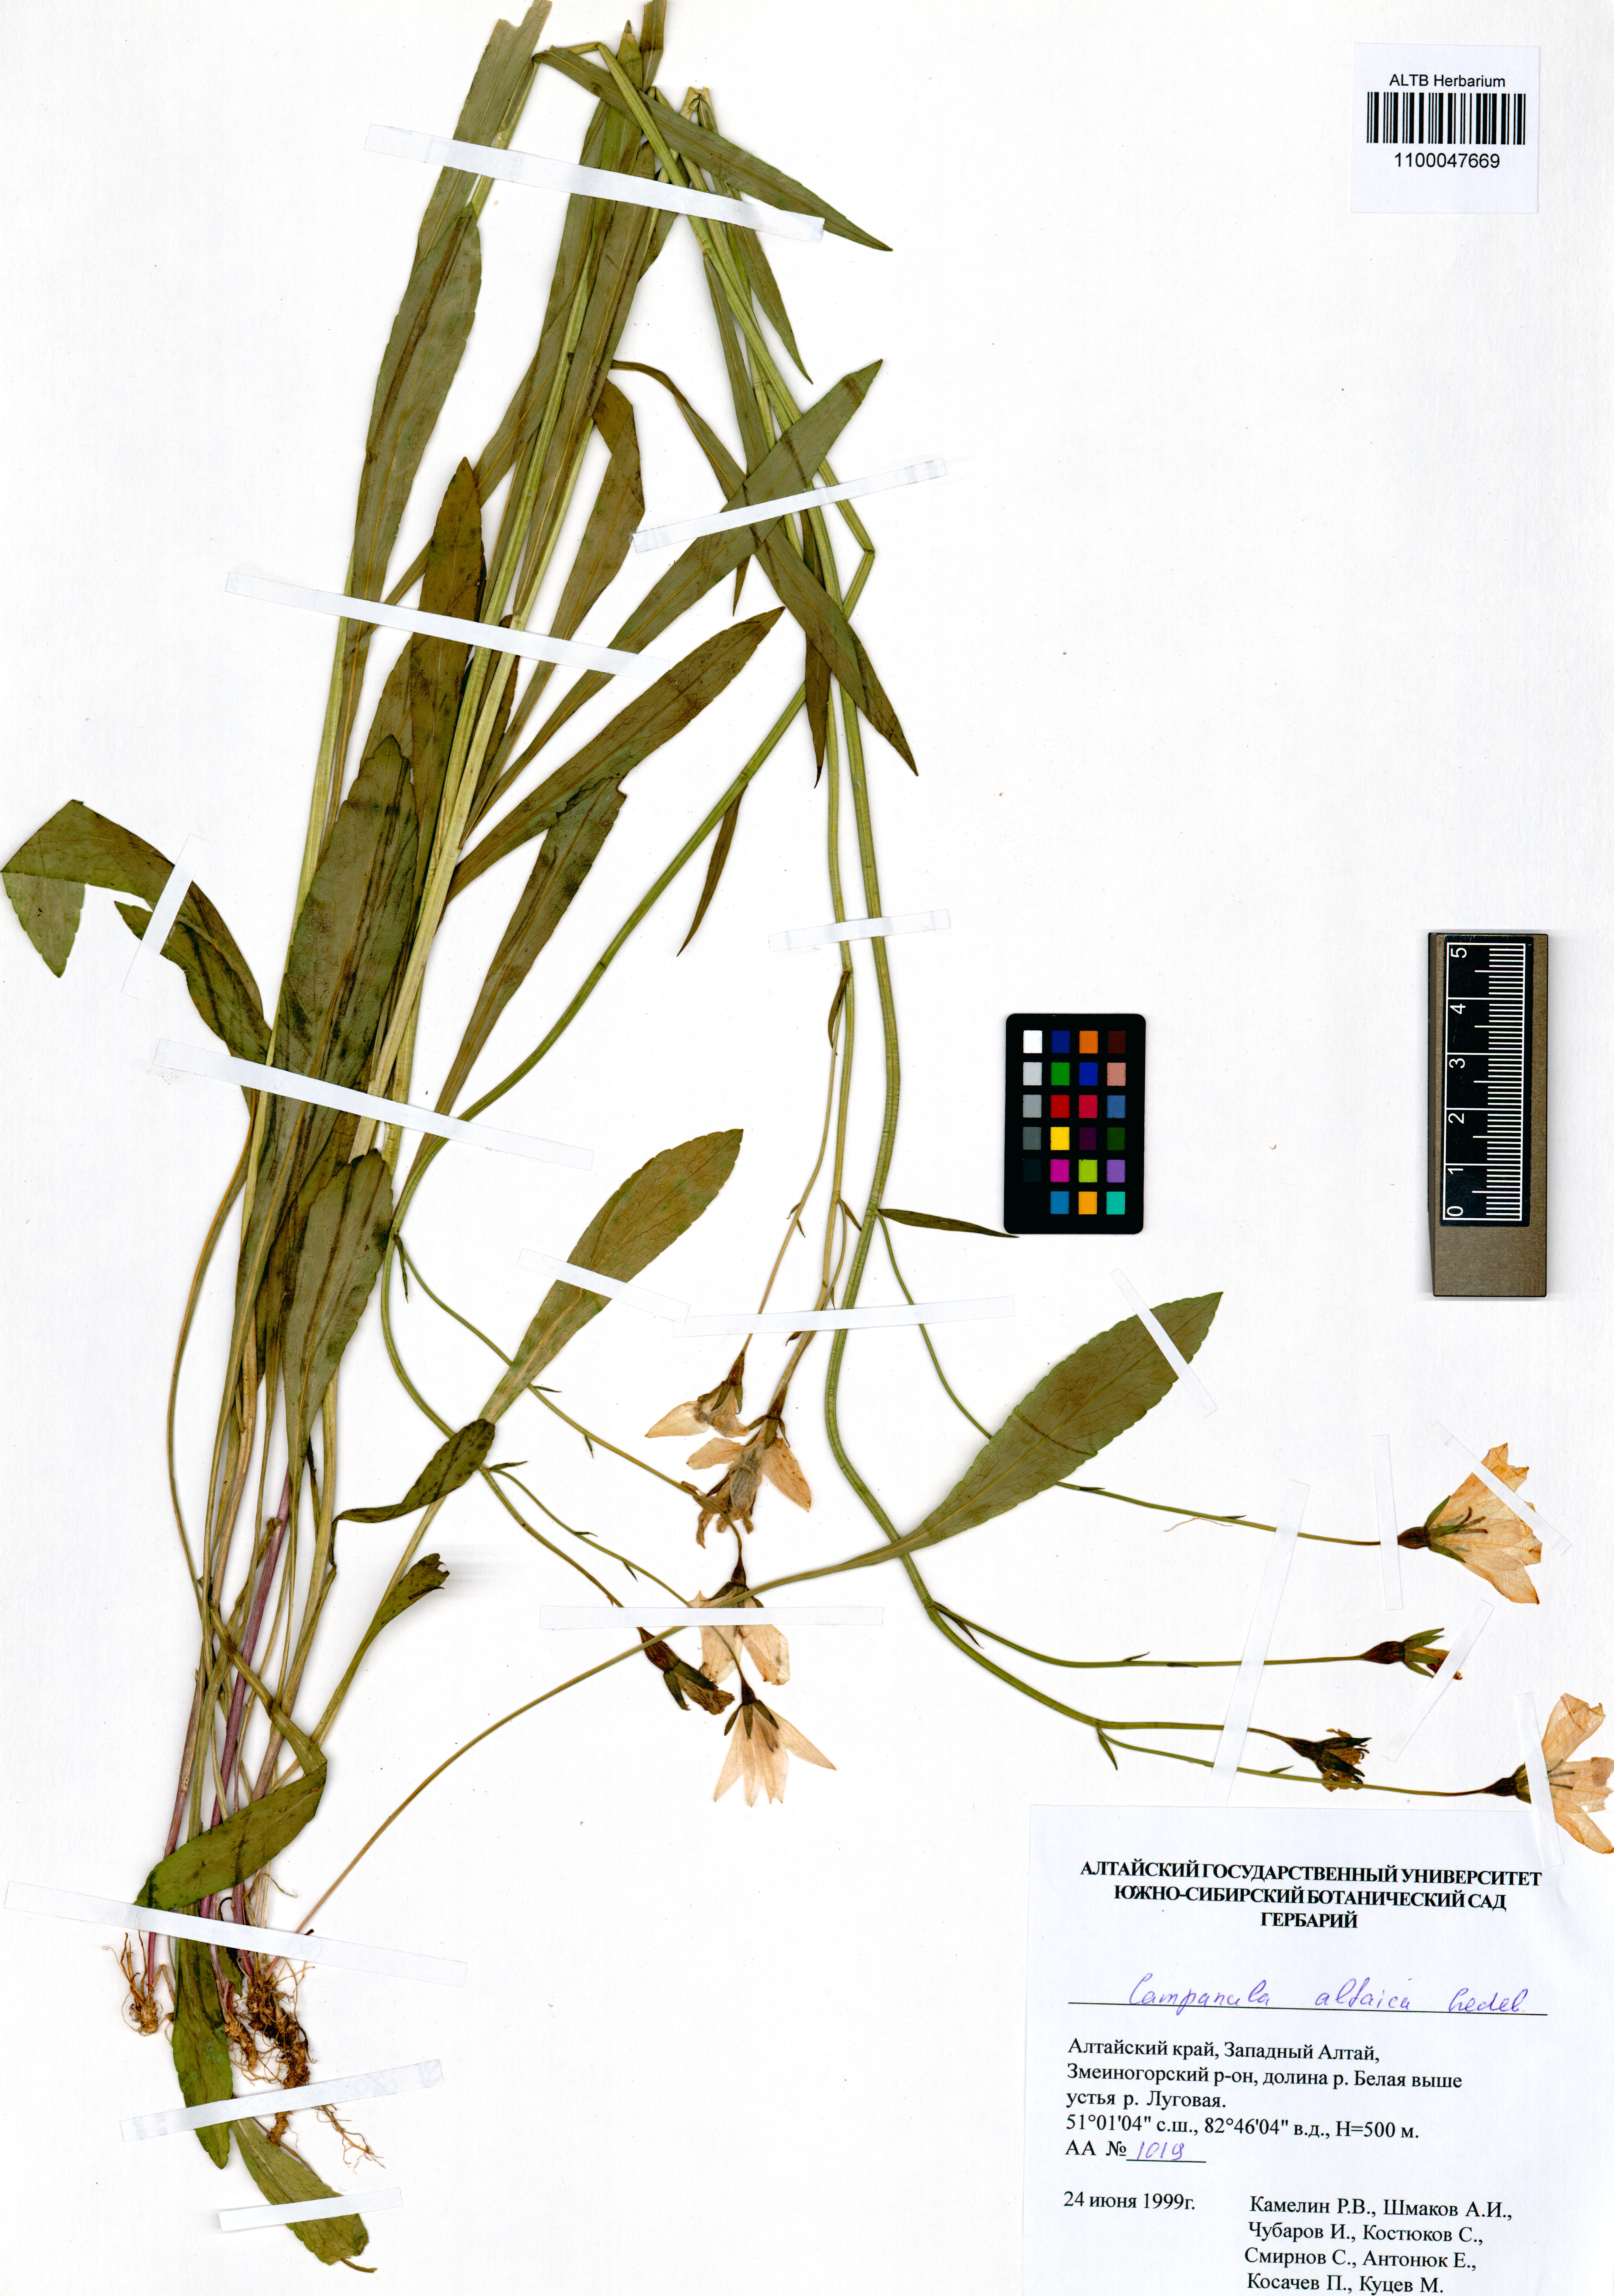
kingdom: Plantae
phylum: Tracheophyta
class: Magnoliopsida
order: Asterales
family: Campanulaceae
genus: Campanula
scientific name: Campanula stevenii
